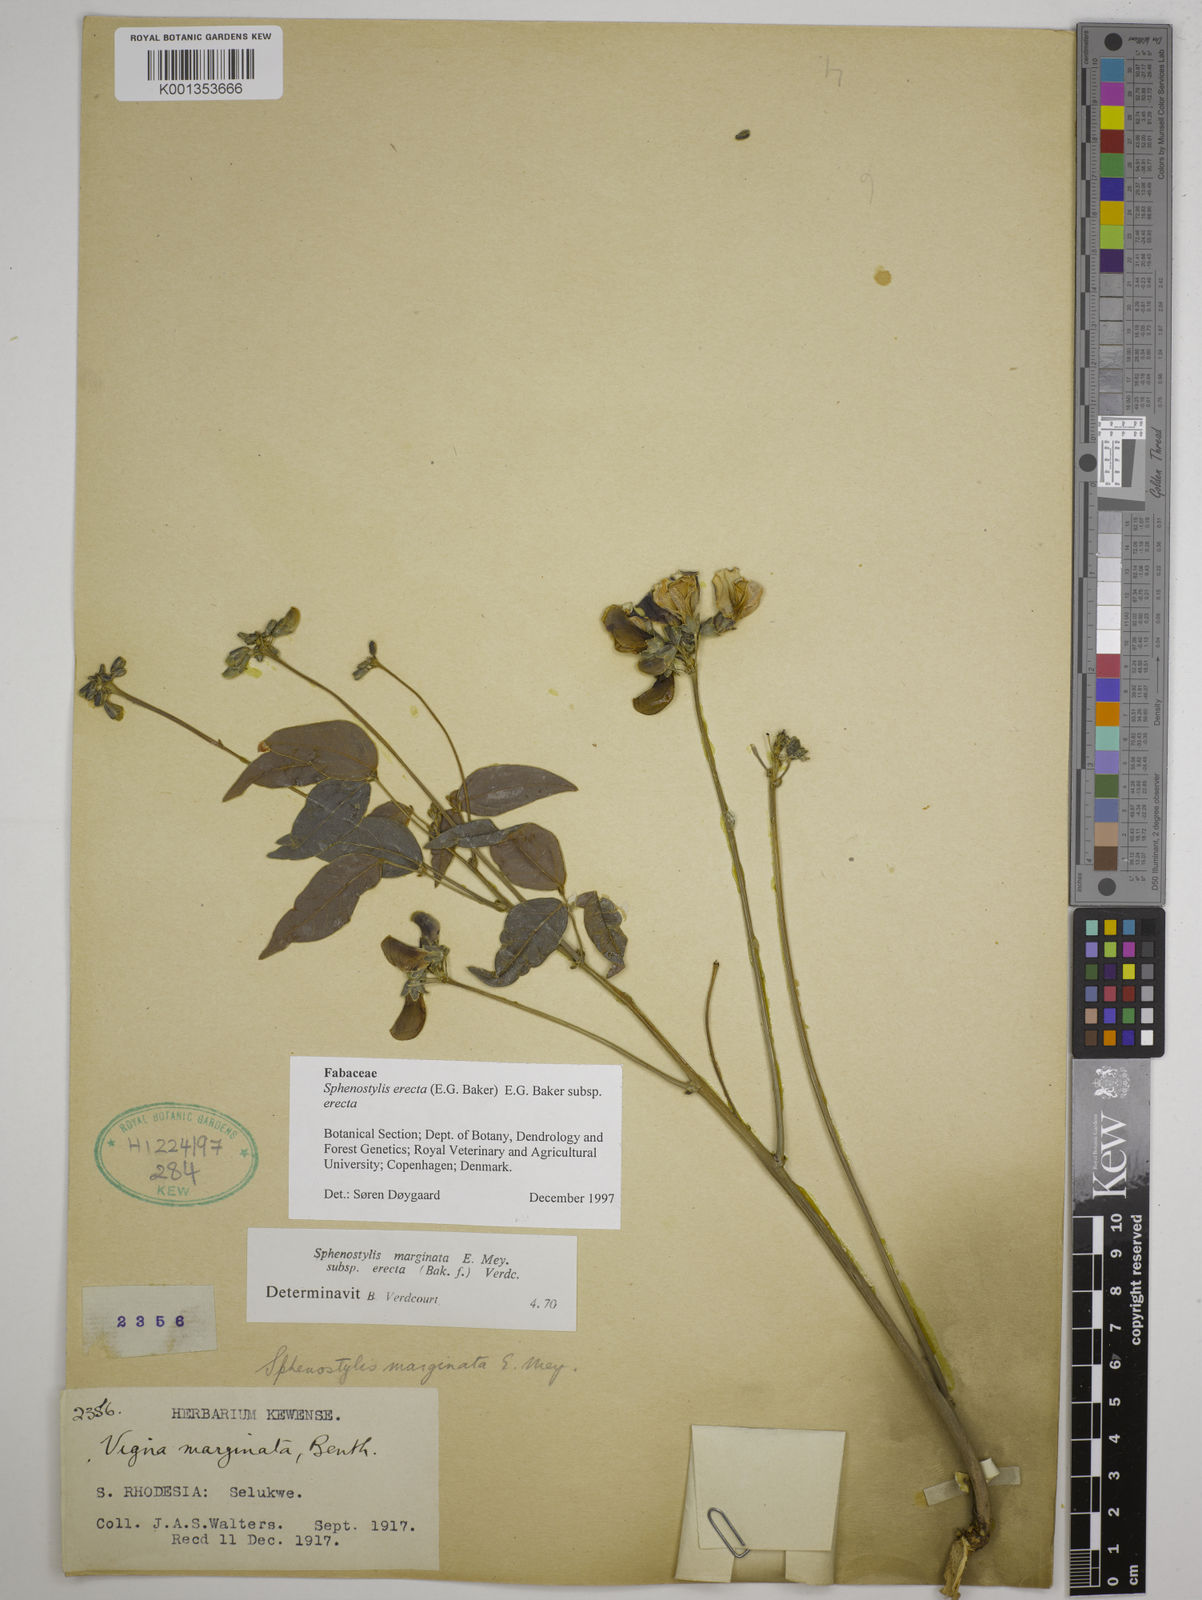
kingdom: Plantae
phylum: Tracheophyta
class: Magnoliopsida
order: Fabales
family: Fabaceae
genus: Sphenostylis
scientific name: Sphenostylis erecta
